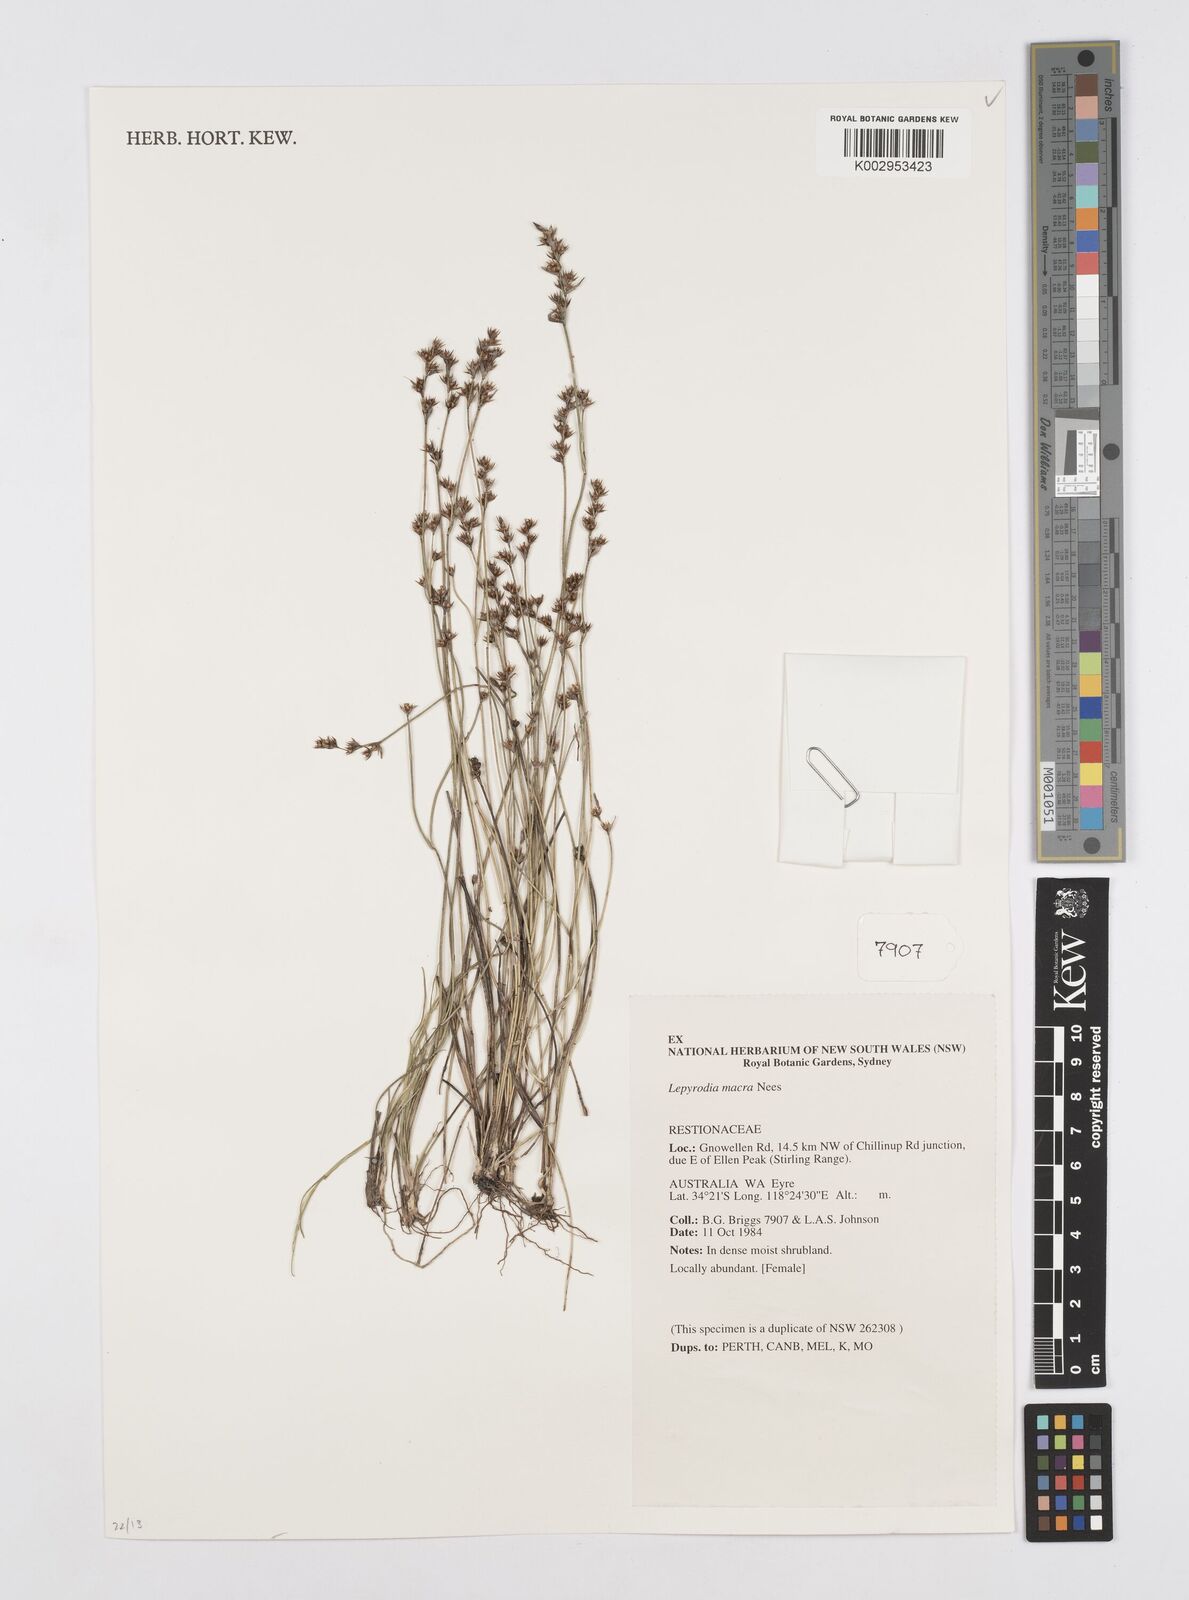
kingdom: Plantae
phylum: Tracheophyta
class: Liliopsida
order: Poales
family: Restionaceae
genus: Lepyrodia
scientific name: Lepyrodia macra
